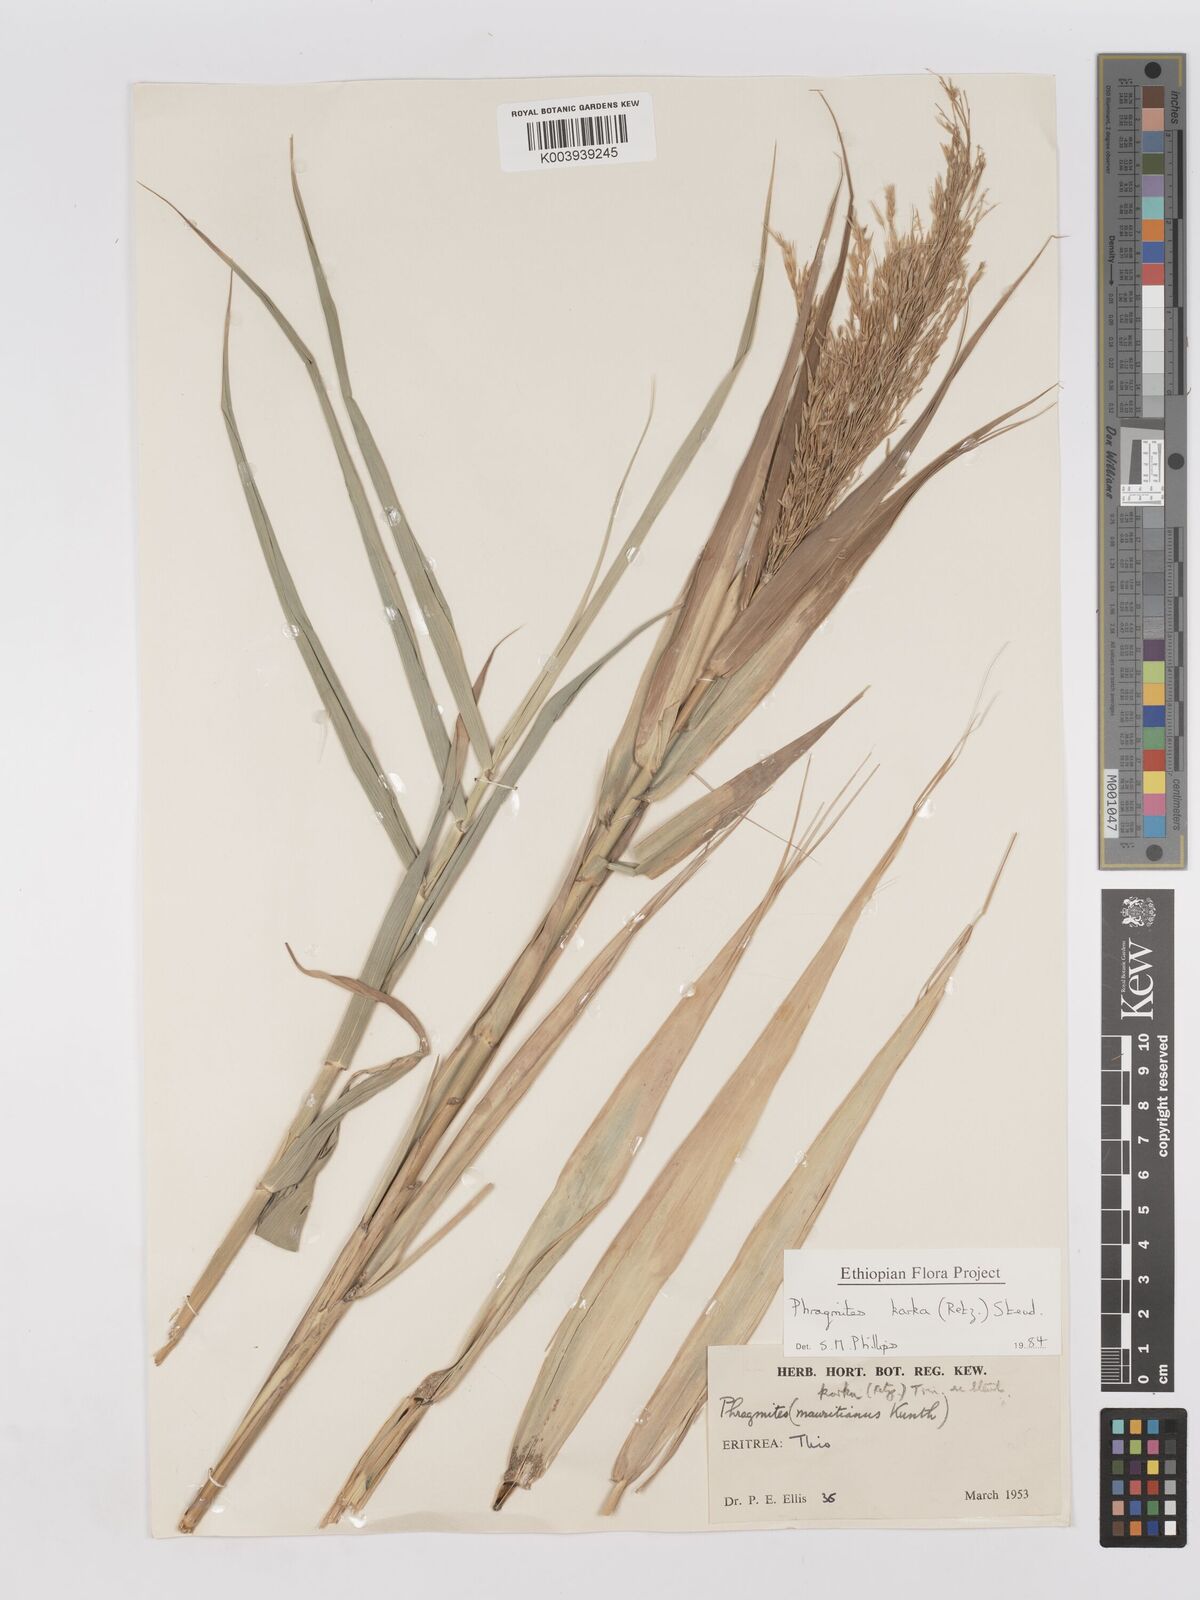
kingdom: Plantae
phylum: Tracheophyta
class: Liliopsida
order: Poales
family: Poaceae
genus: Phragmites
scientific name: Phragmites karka
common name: Tropical reed
